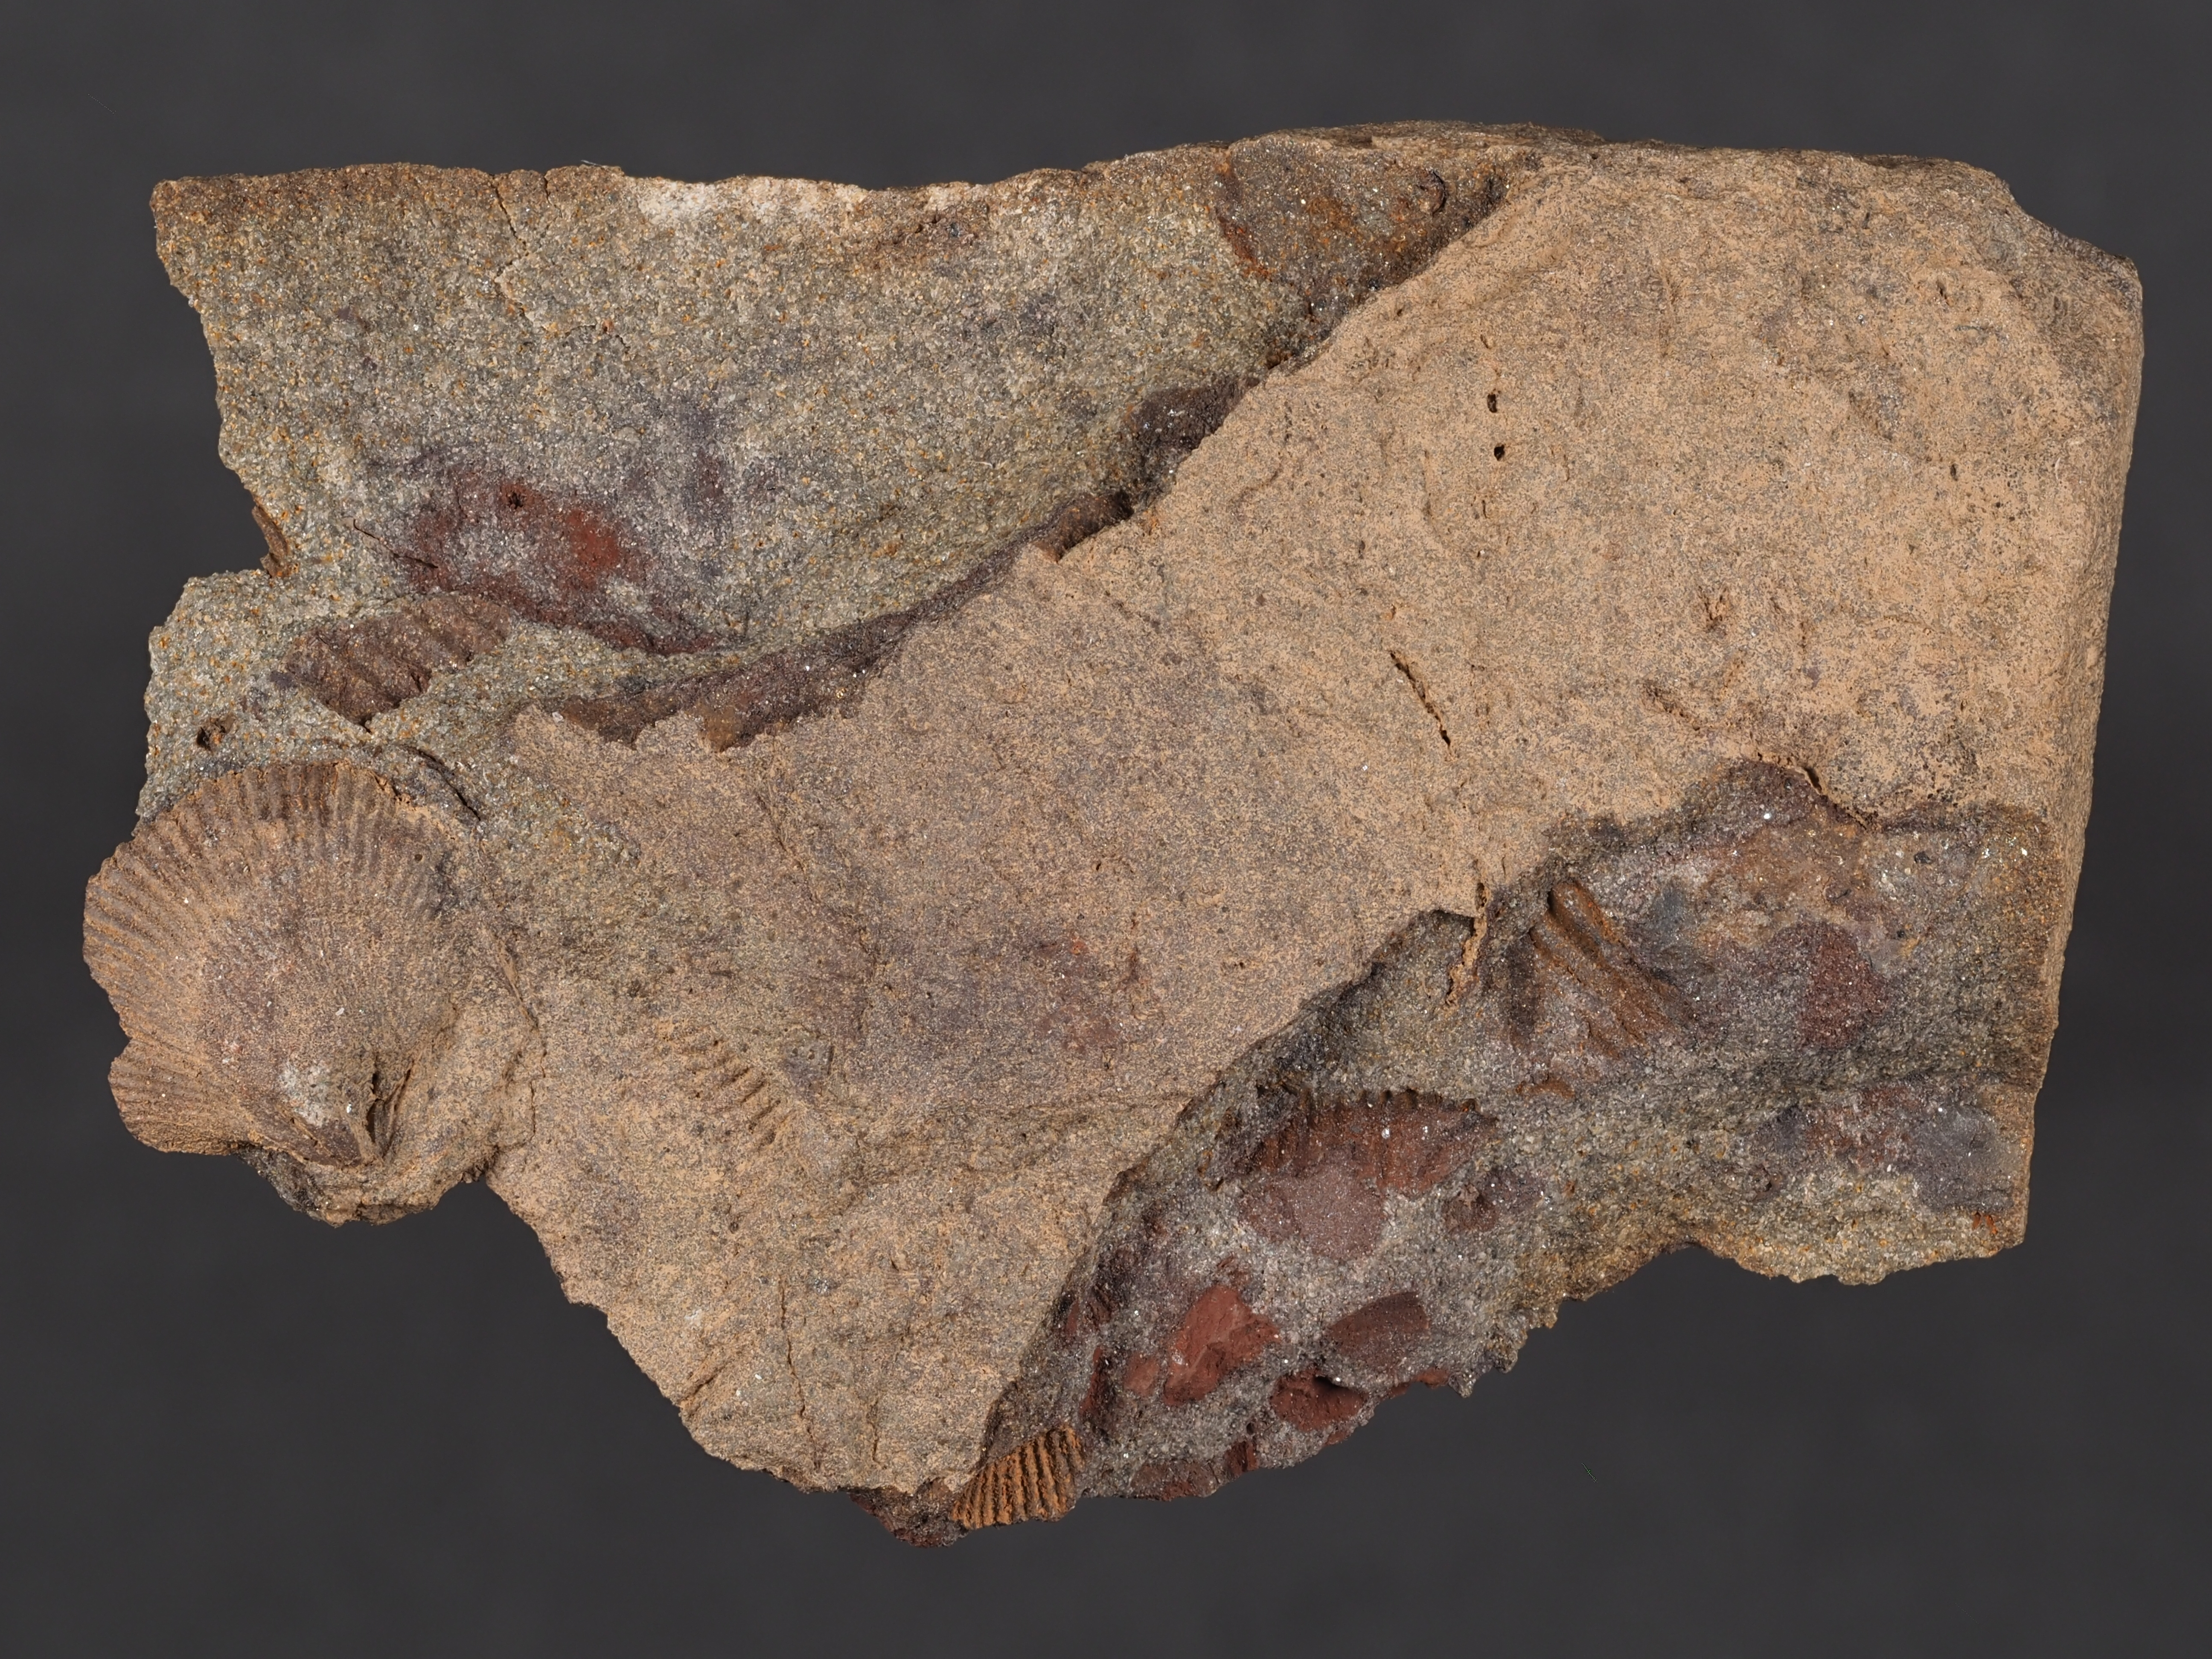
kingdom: Animalia
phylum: Brachiopoda
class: Rhynchonellata
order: Terebratulida
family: Mutationellidae
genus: Mutationella
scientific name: Mutationella
